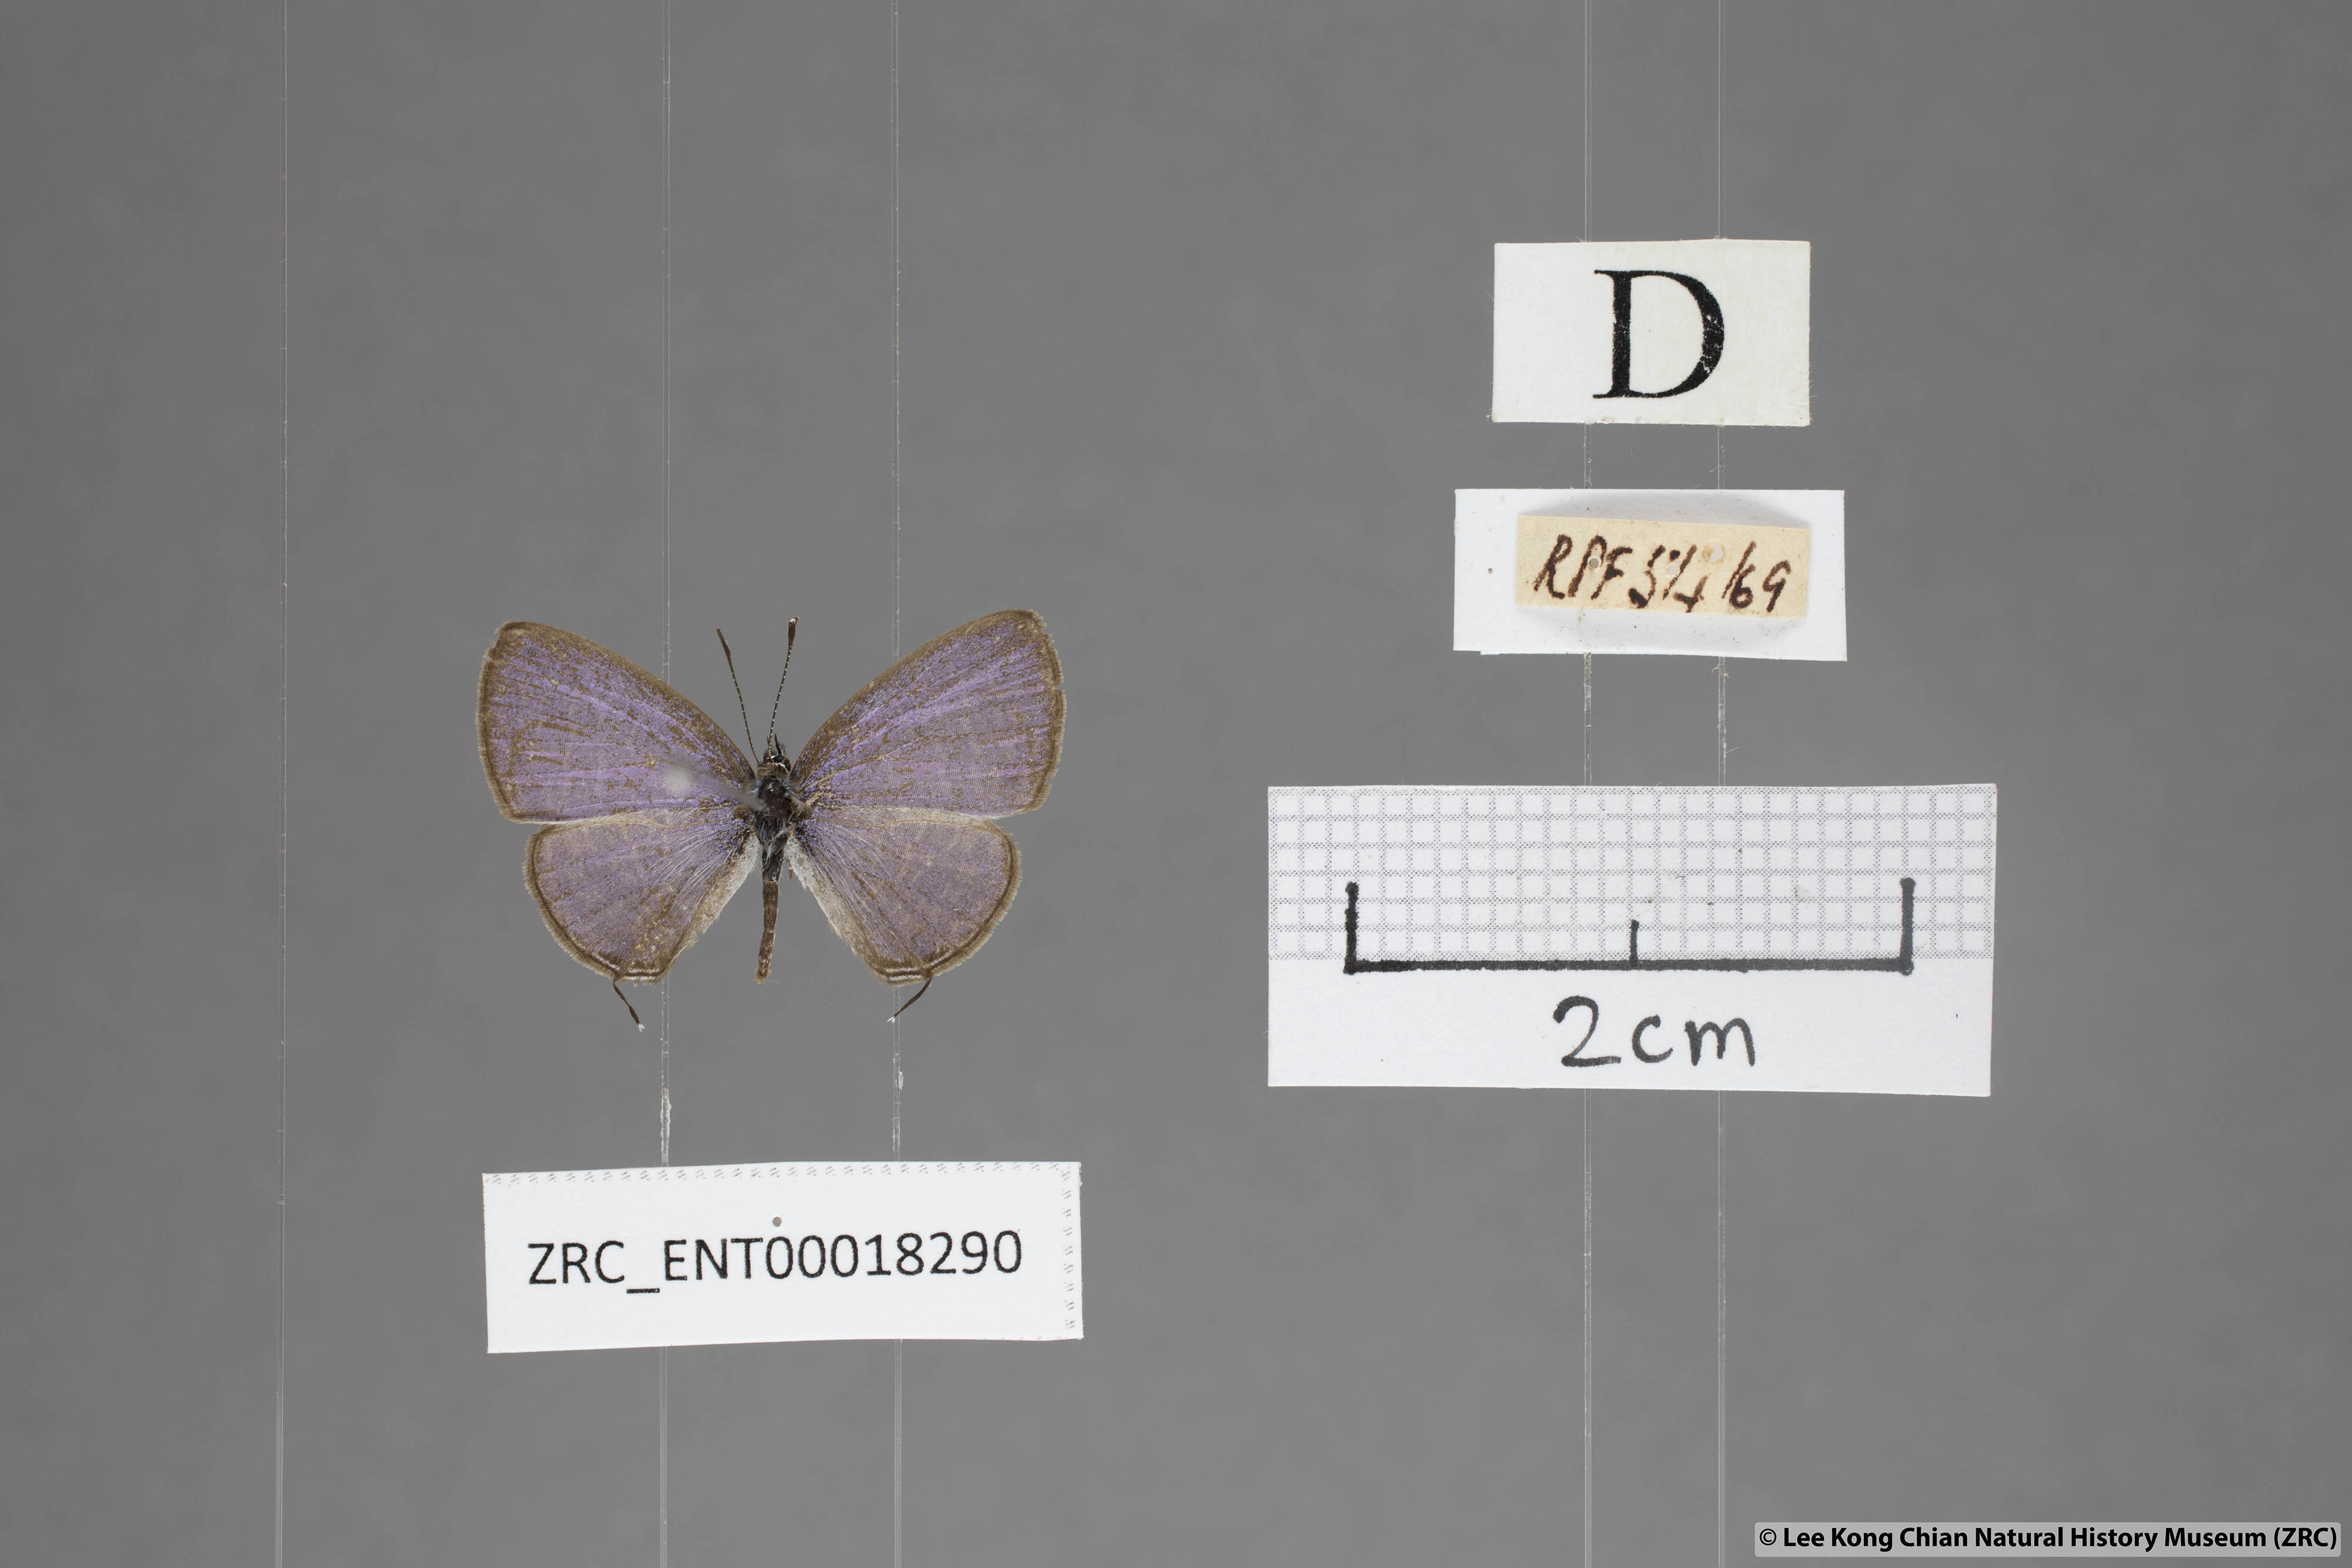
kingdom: Animalia
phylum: Arthropoda
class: Insecta
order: Lepidoptera
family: Lycaenidae
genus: Prosotas
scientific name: Prosotas aluta
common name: Barred lineblue
